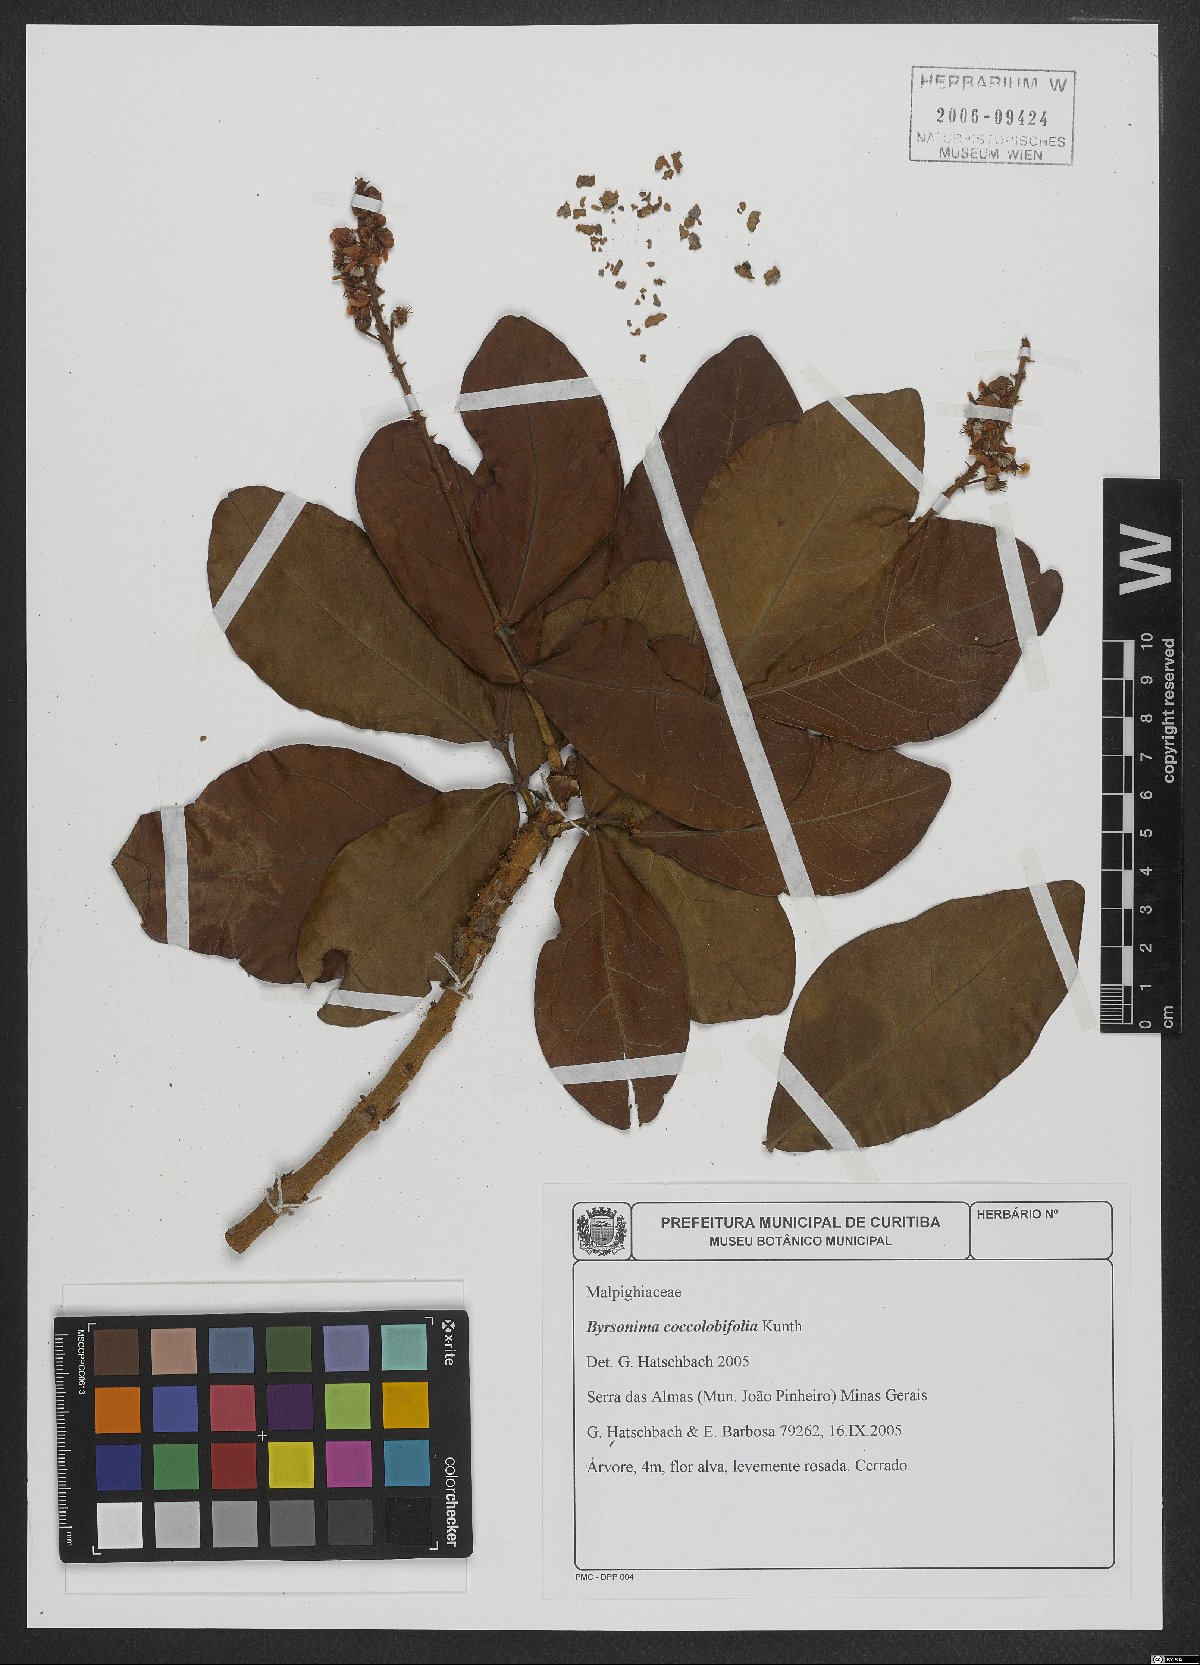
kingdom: Plantae
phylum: Tracheophyta
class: Magnoliopsida
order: Malpighiales
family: Malpighiaceae
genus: Byrsonima
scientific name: Byrsonima coccolobifolia
